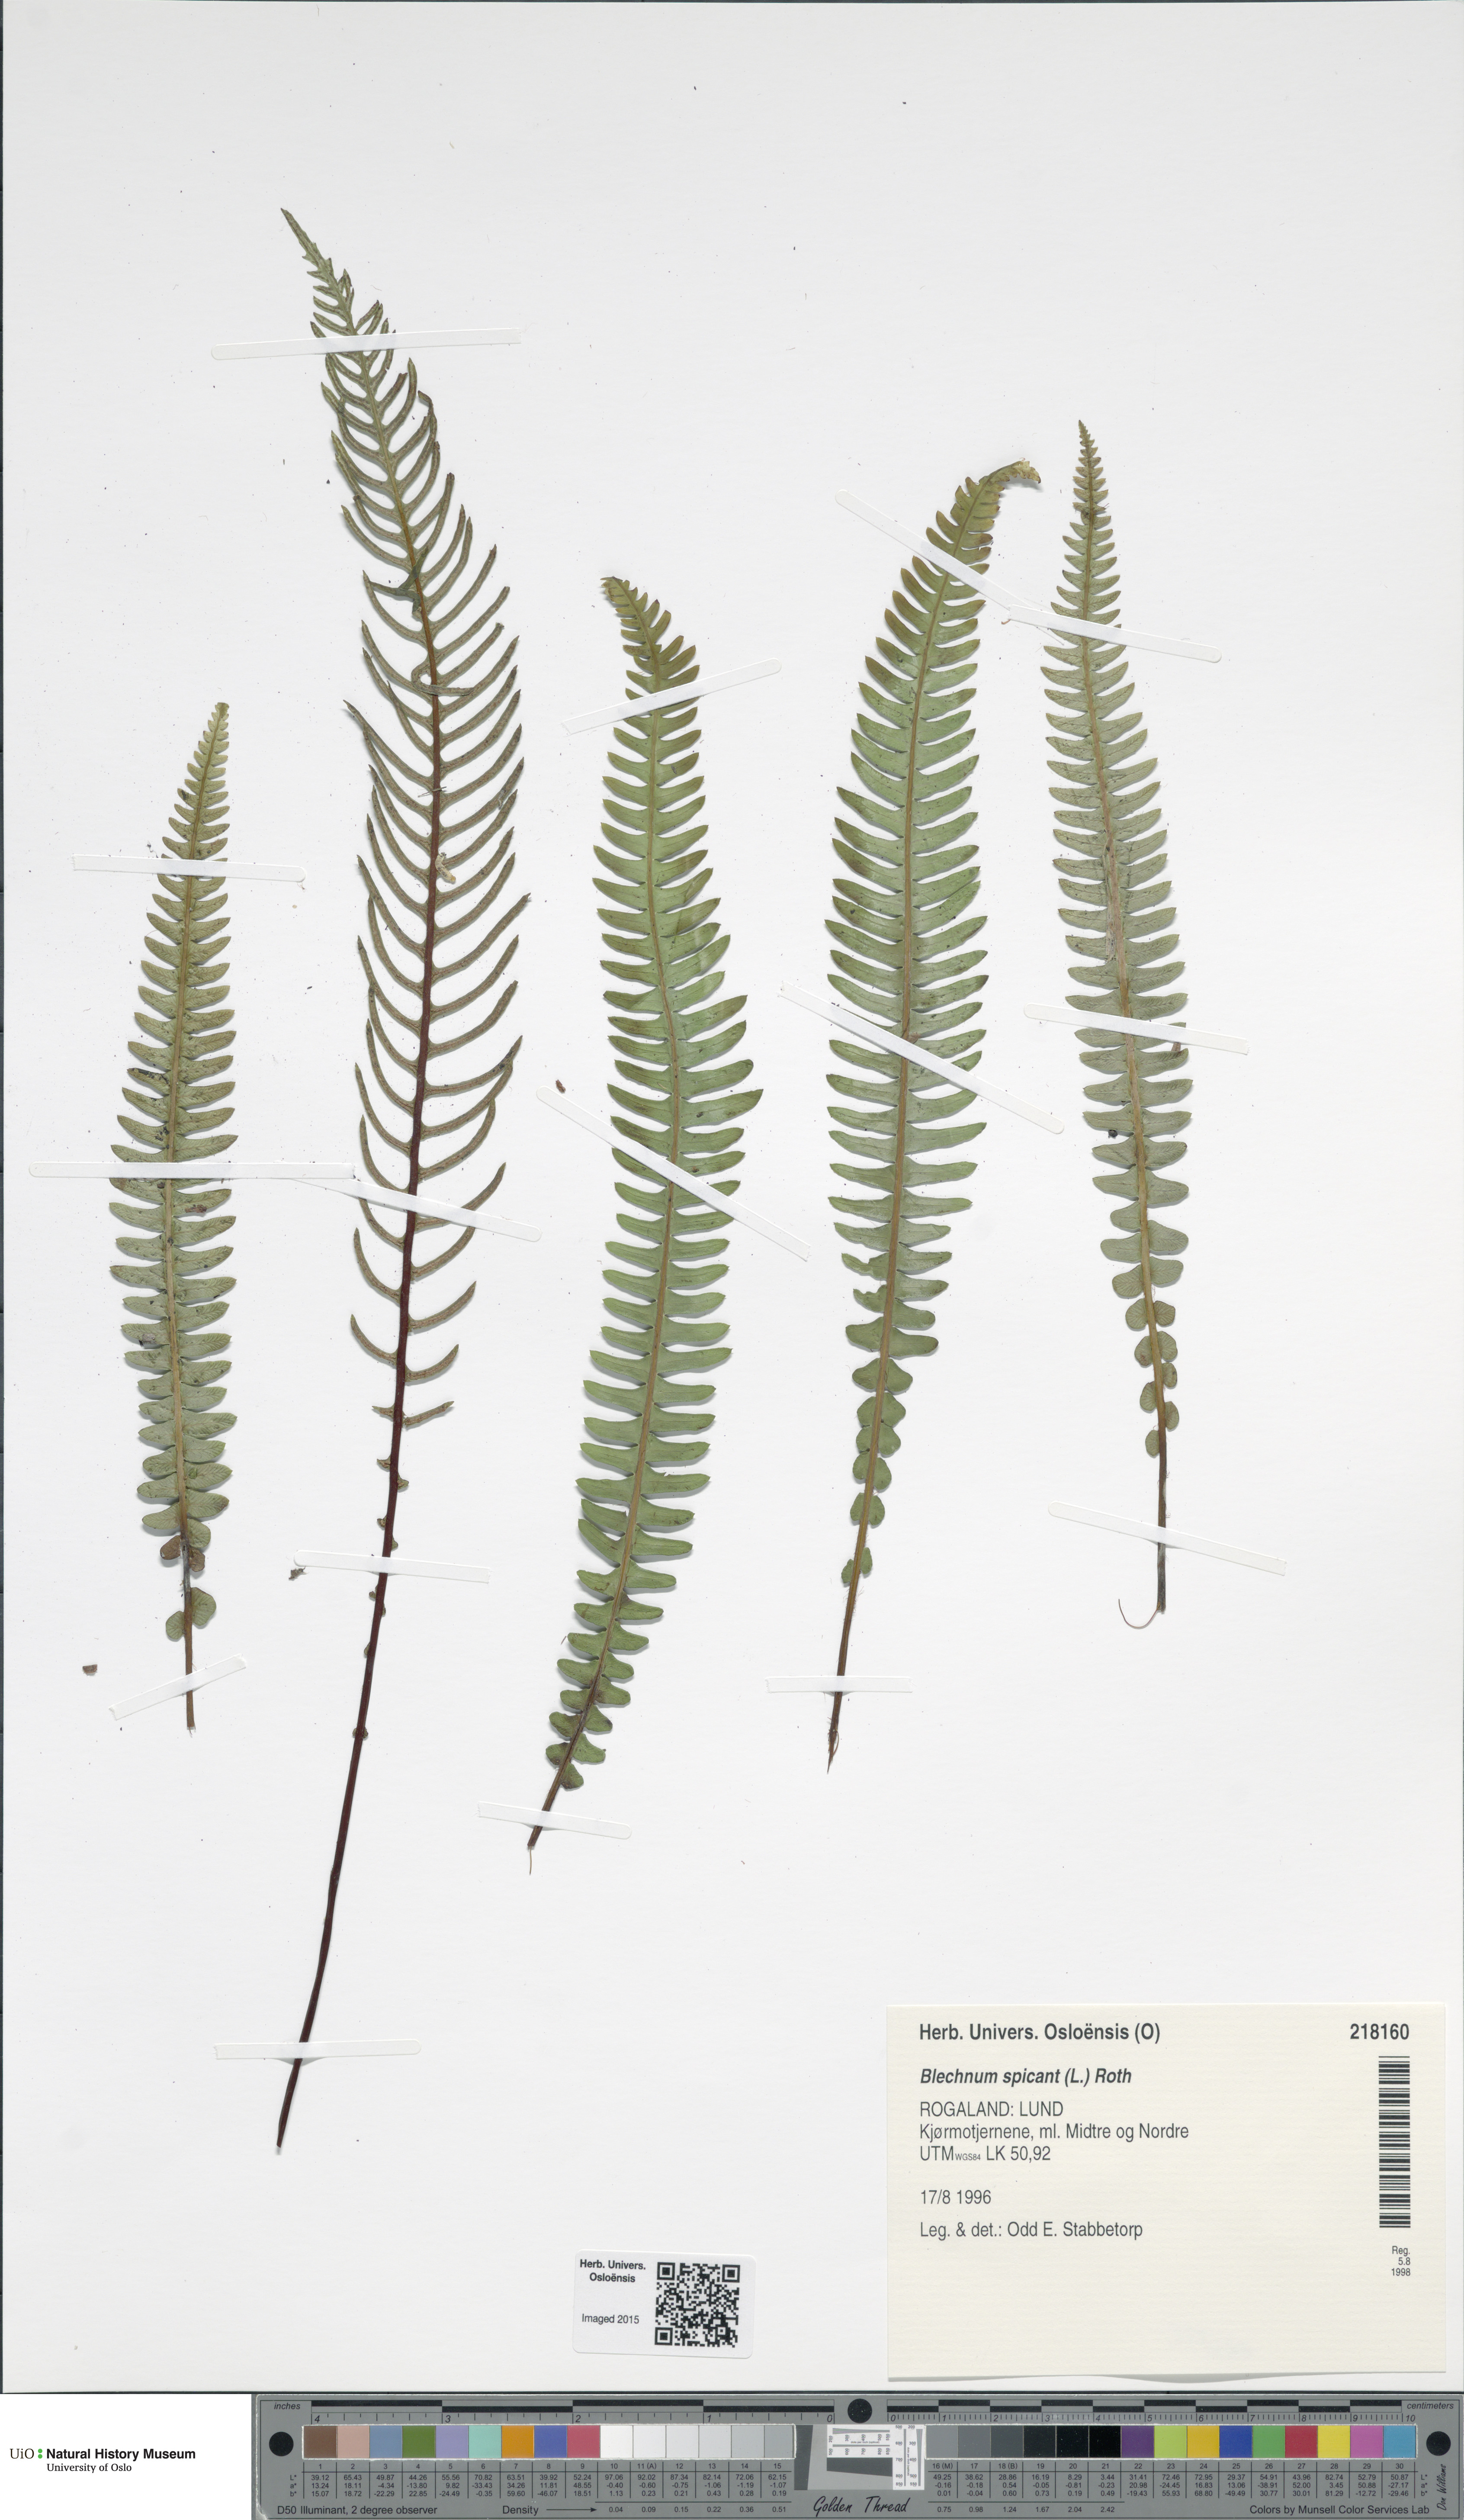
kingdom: Plantae
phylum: Tracheophyta
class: Polypodiopsida
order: Polypodiales
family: Blechnaceae
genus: Struthiopteris
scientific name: Struthiopteris spicant
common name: Deer fern
